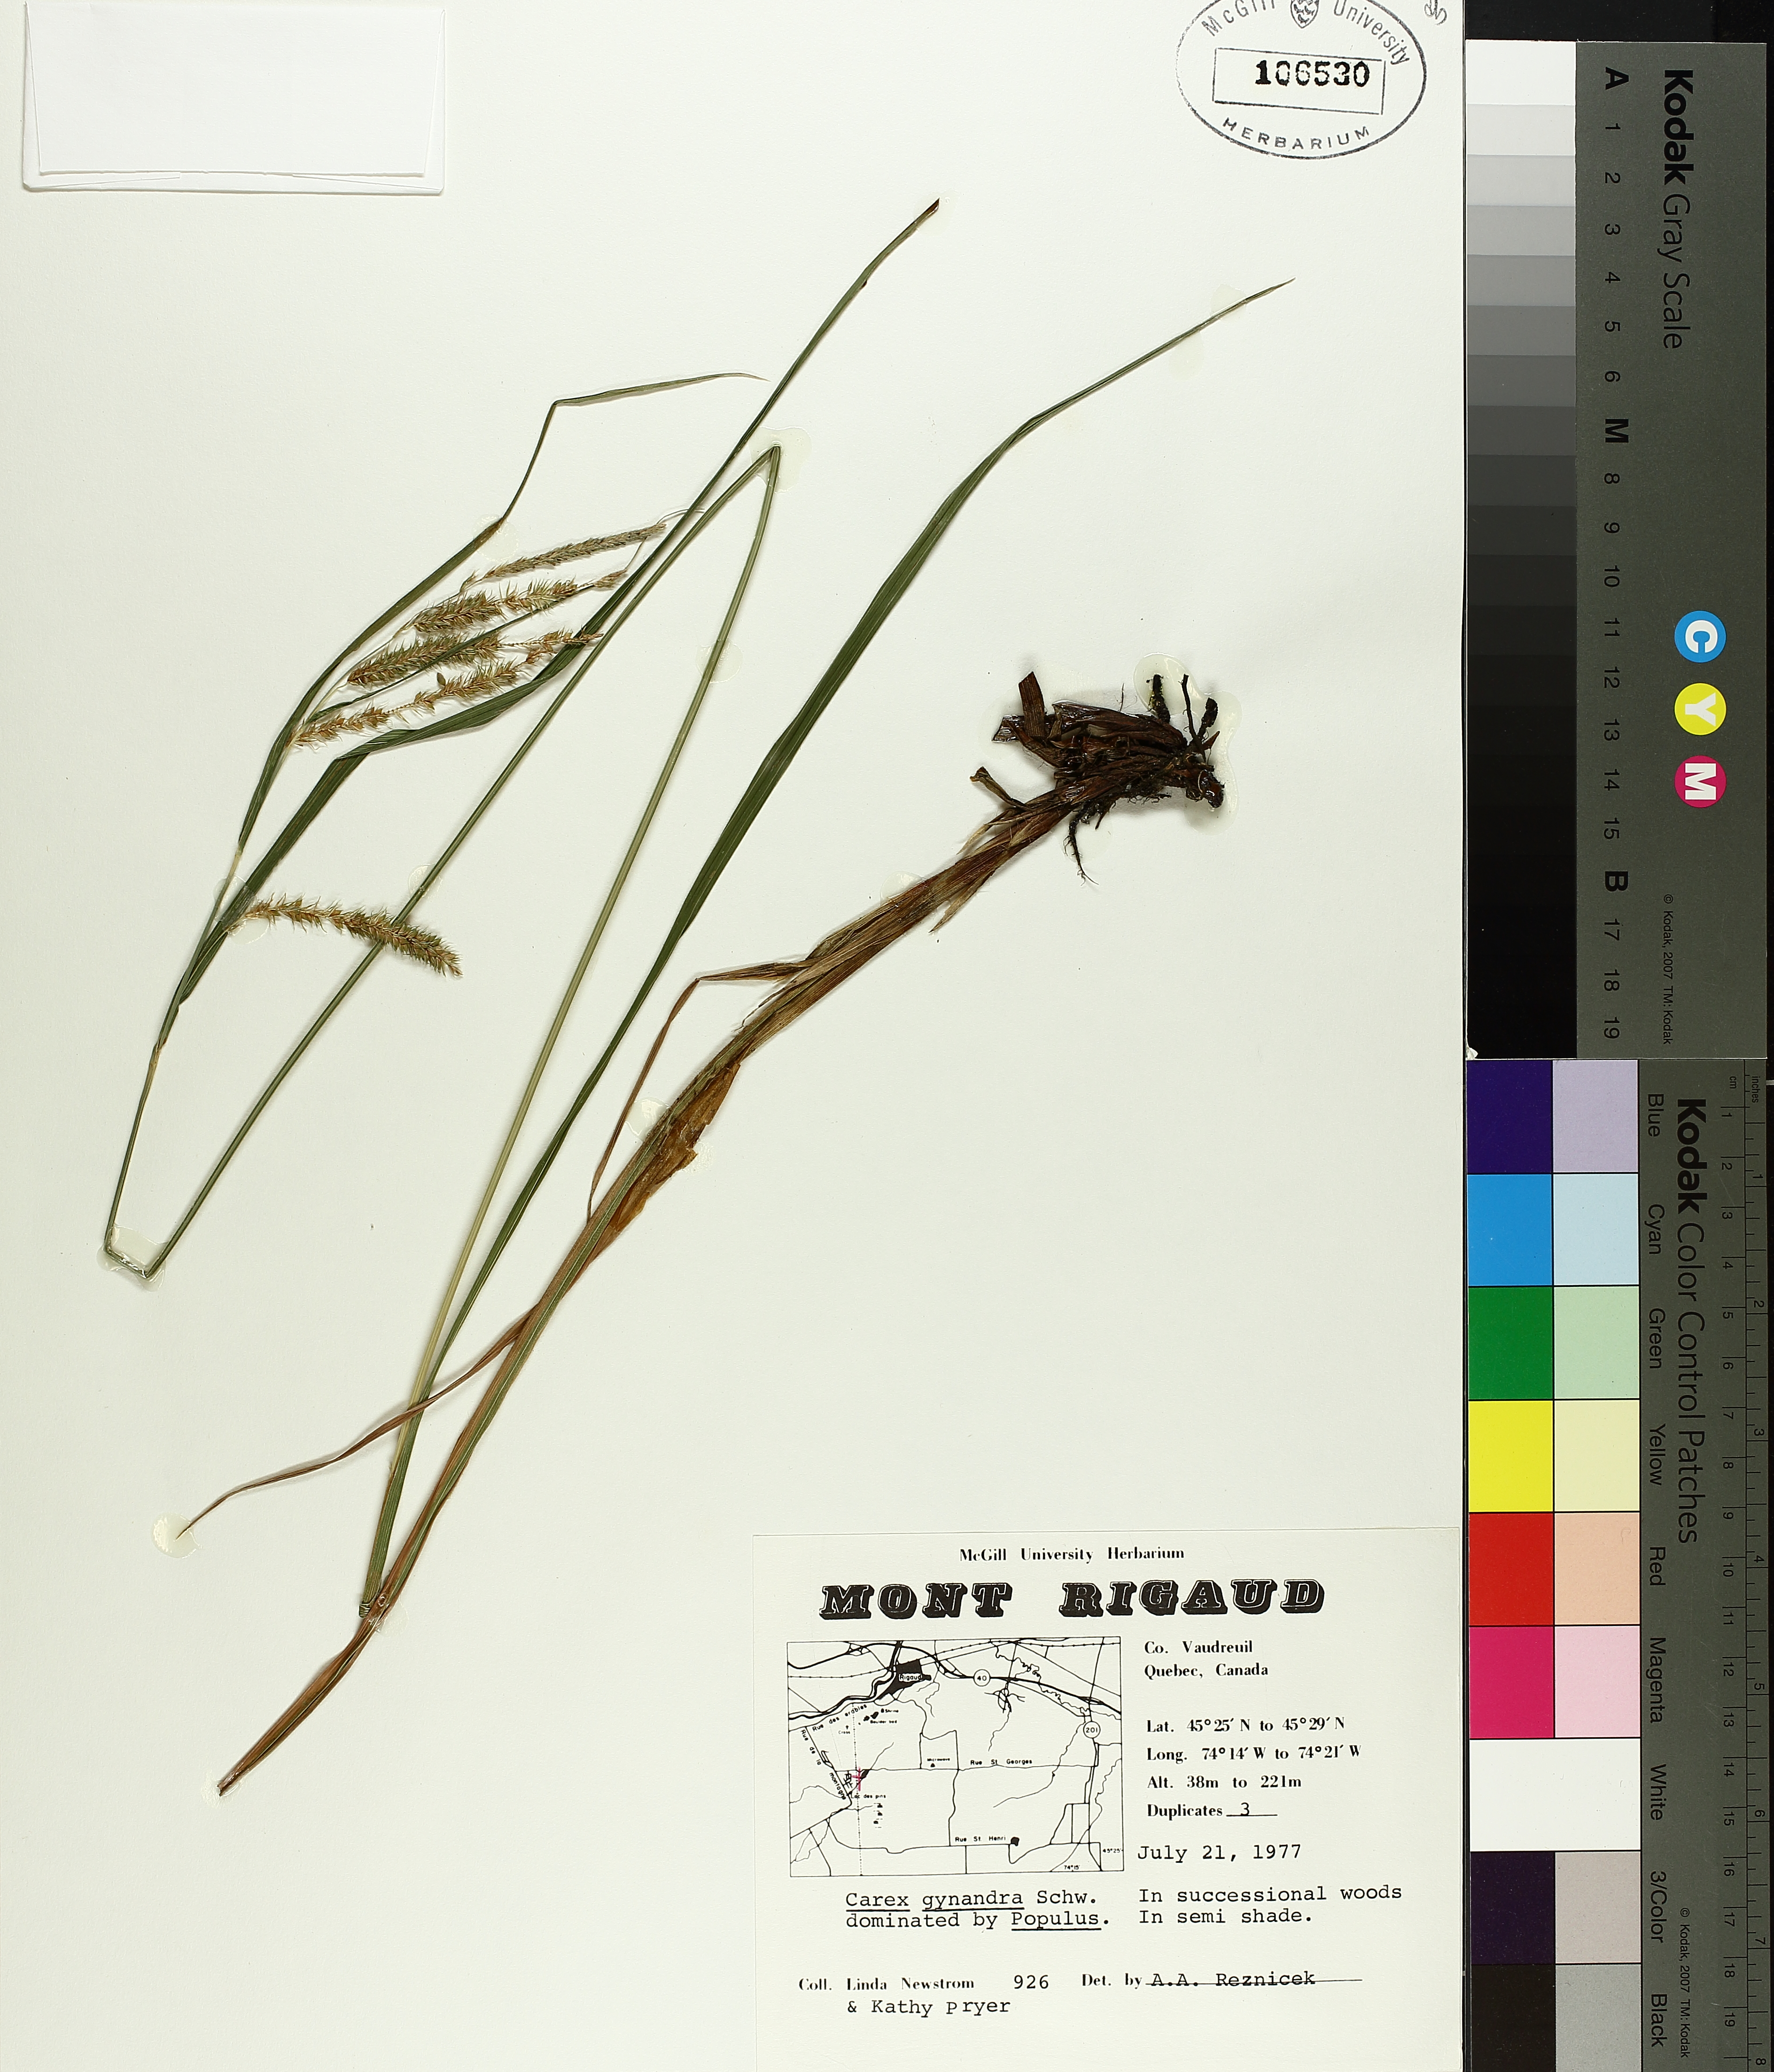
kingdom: Plantae
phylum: Tracheophyta
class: Liliopsida
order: Poales
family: Cyperaceae
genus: Carex
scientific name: Carex gynandra
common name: Nodding sedge
